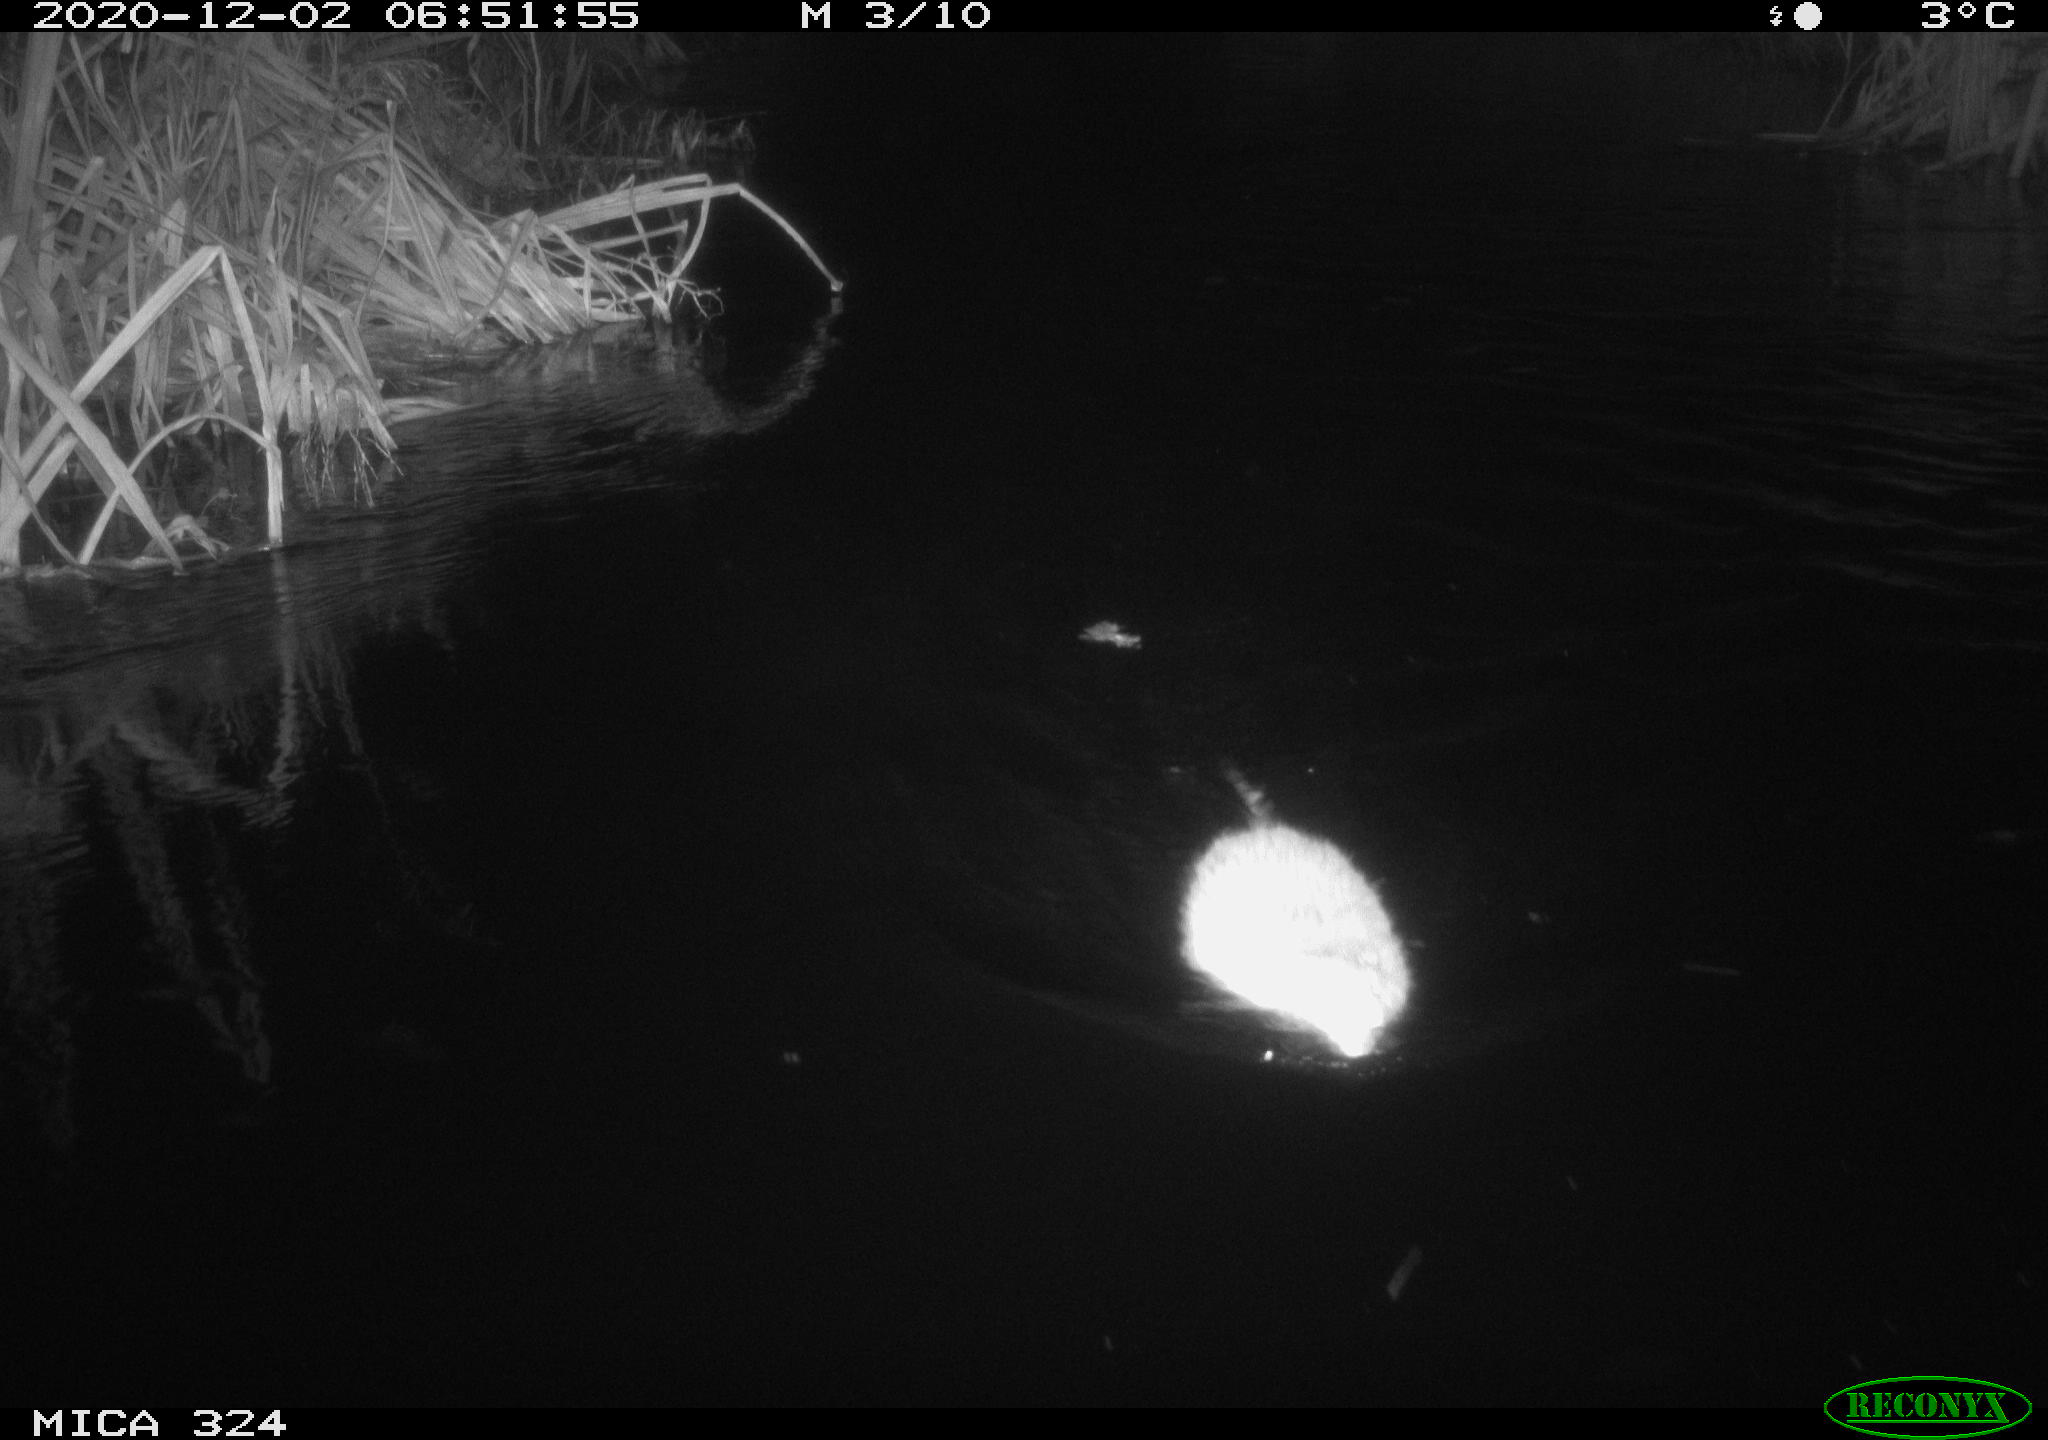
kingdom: Animalia
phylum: Chordata
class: Mammalia
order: Rodentia
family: Myocastoridae
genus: Myocastor
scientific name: Myocastor coypus
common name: Coypu
